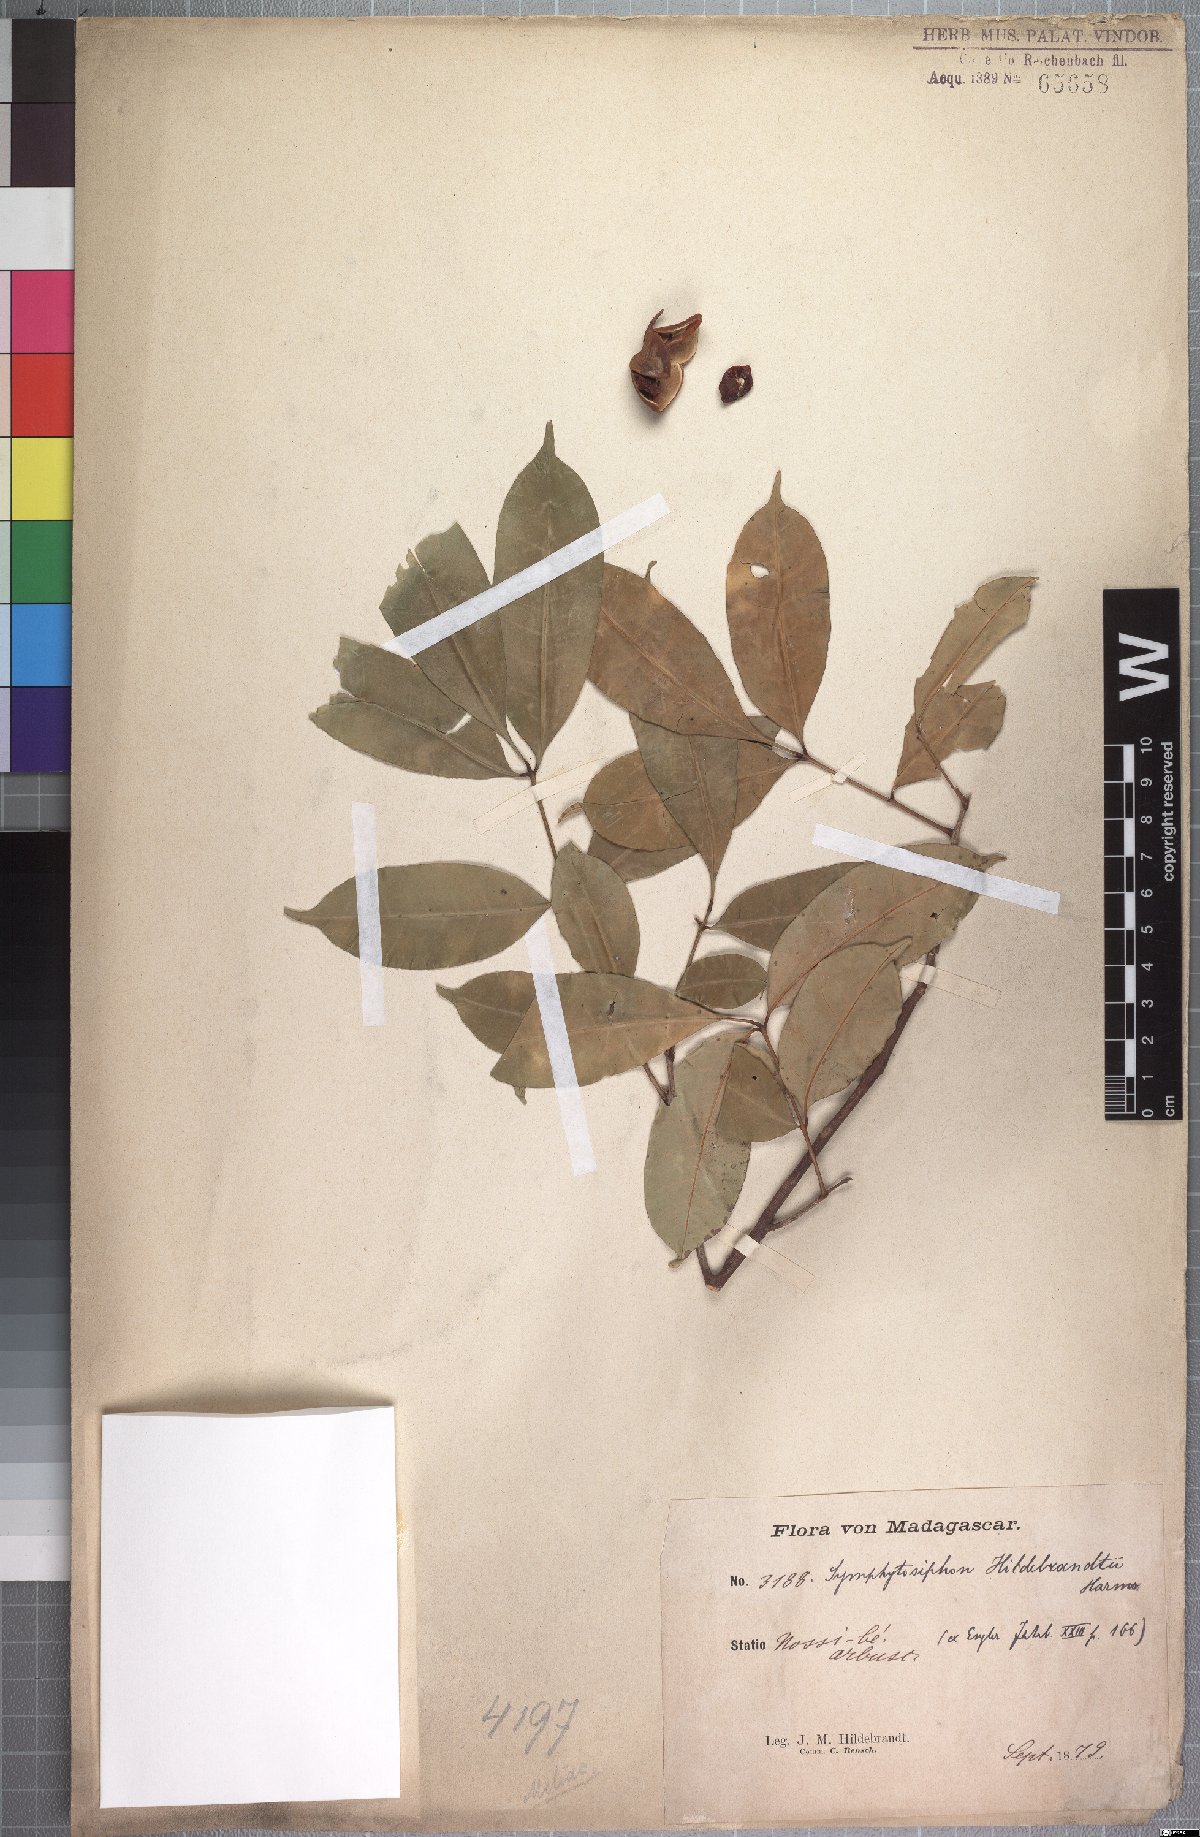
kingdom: Plantae
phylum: Tracheophyta
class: Magnoliopsida
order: Sapindales
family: Meliaceae
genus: Trichilia
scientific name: Trichilia mucronata
